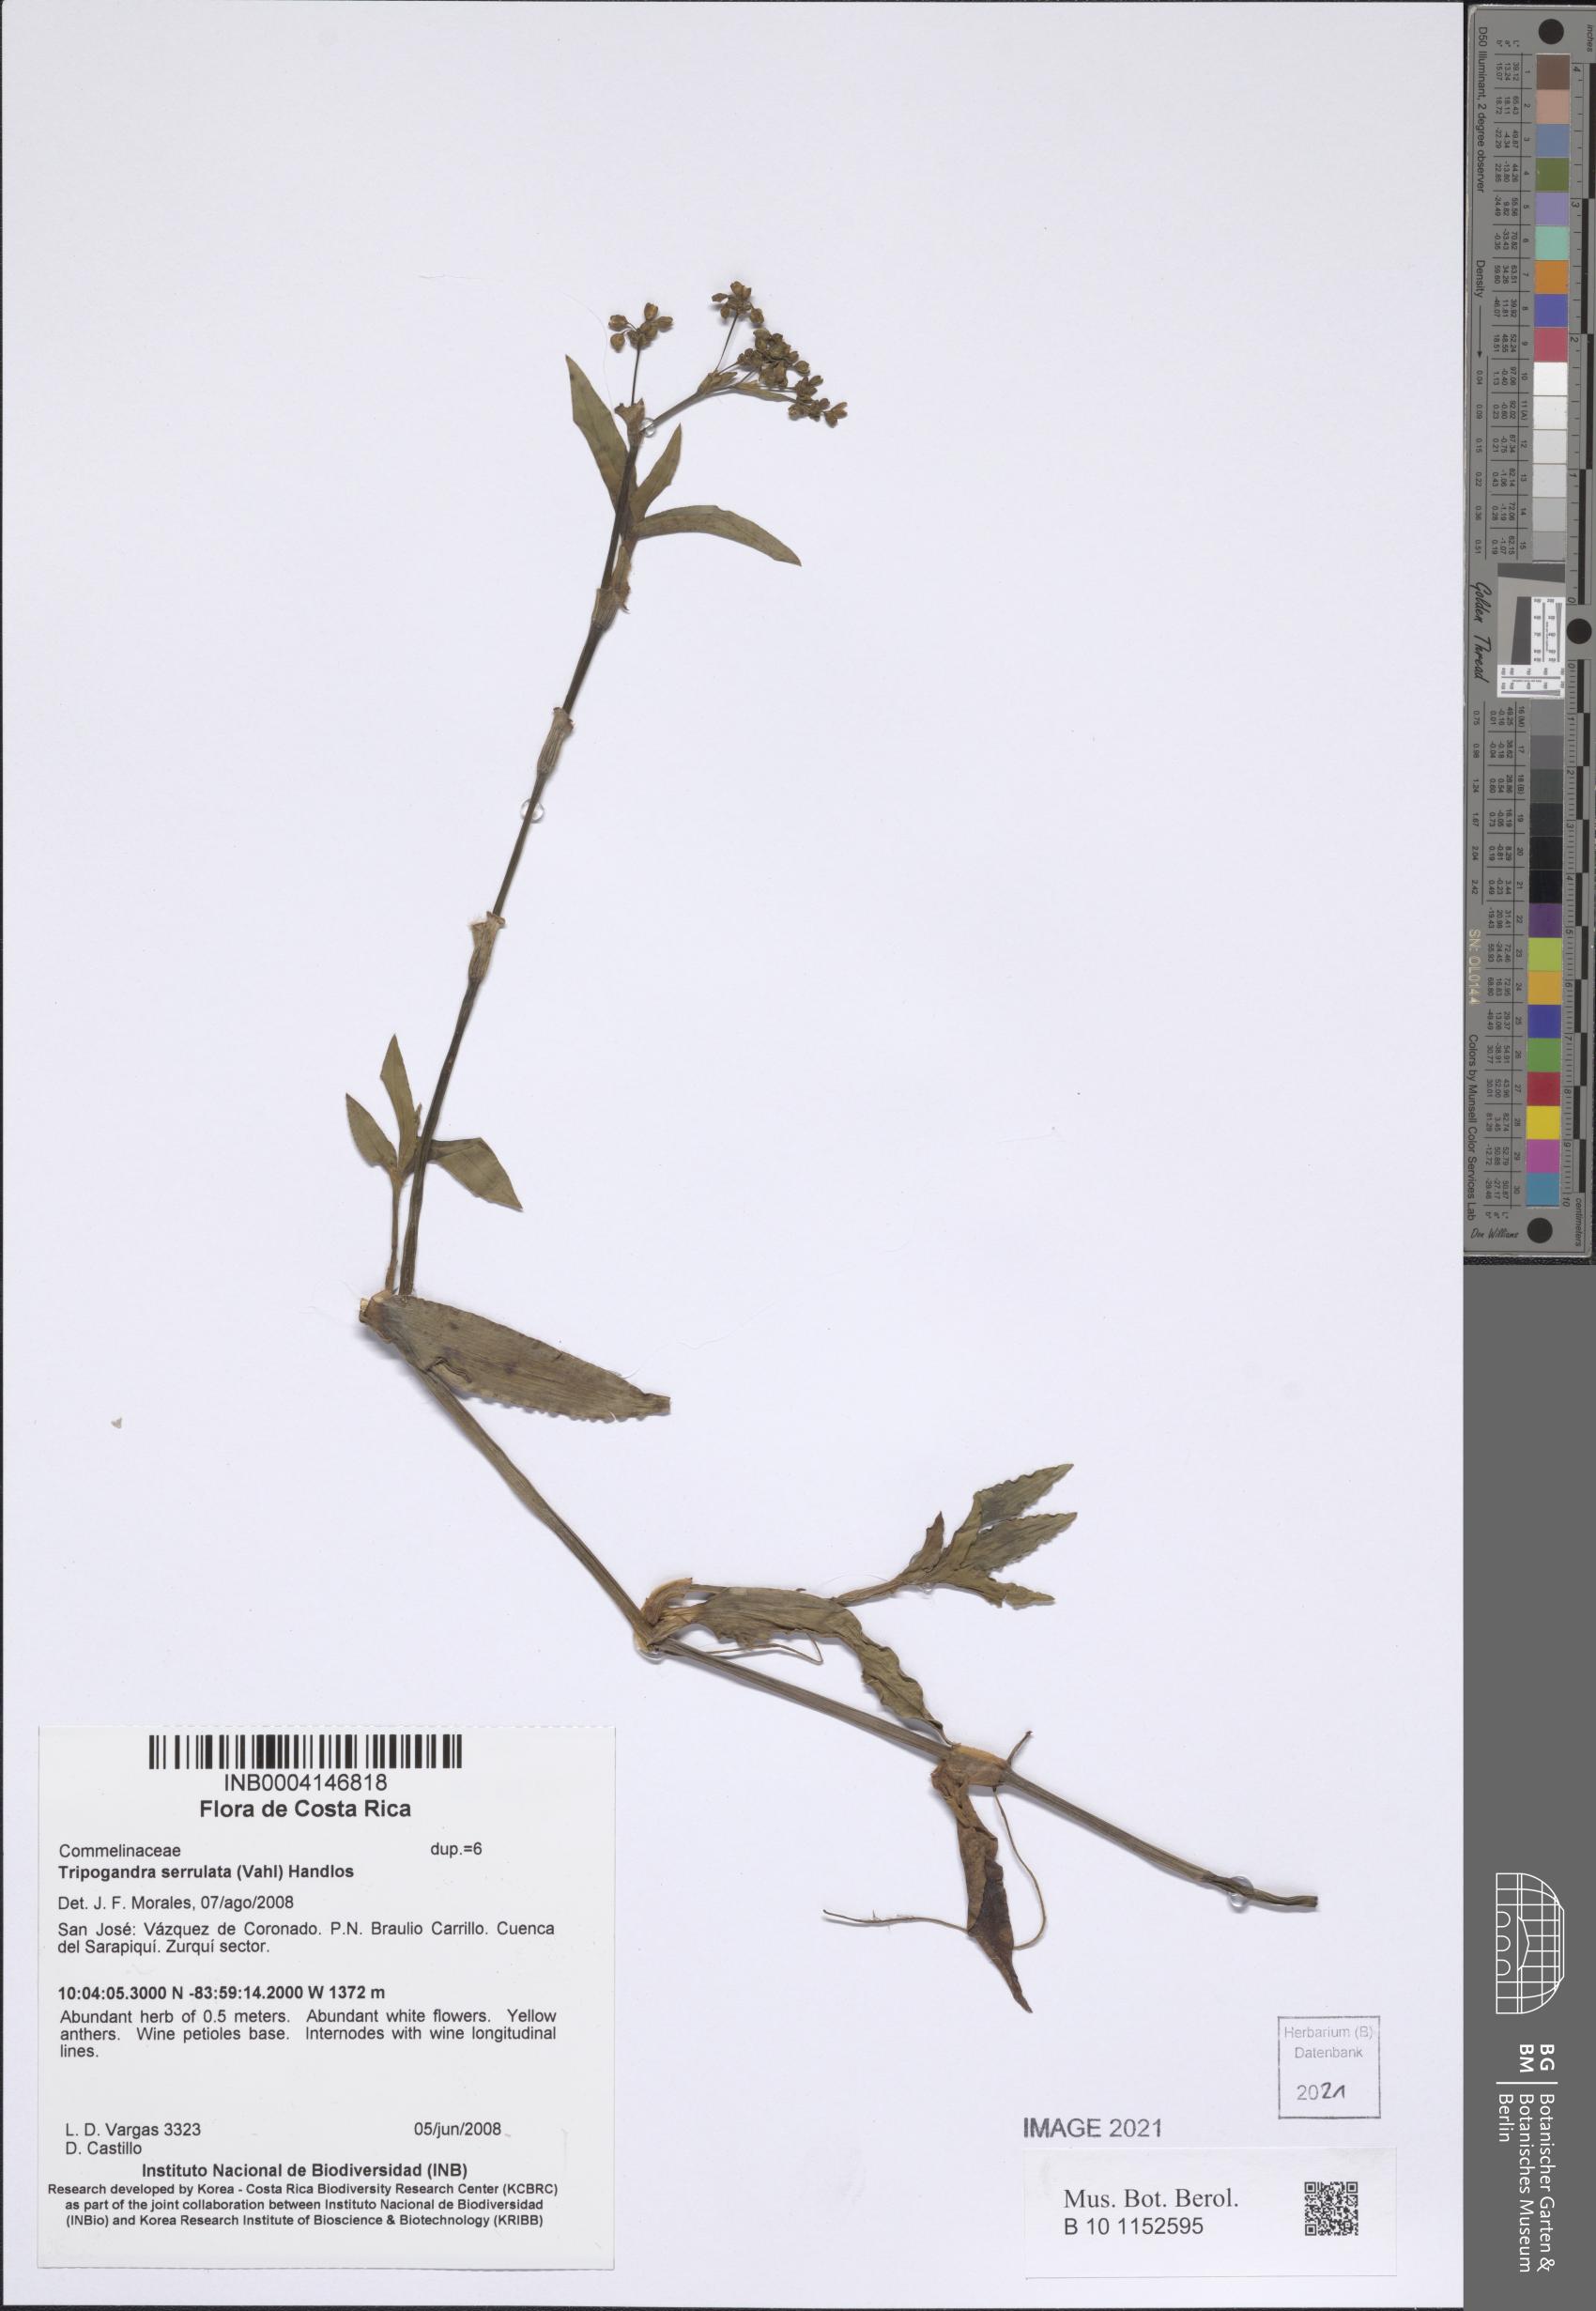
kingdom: Plantae
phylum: Tracheophyta
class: Liliopsida
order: Commelinales
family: Commelinaceae
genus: Callisia
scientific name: Callisia serrulata
